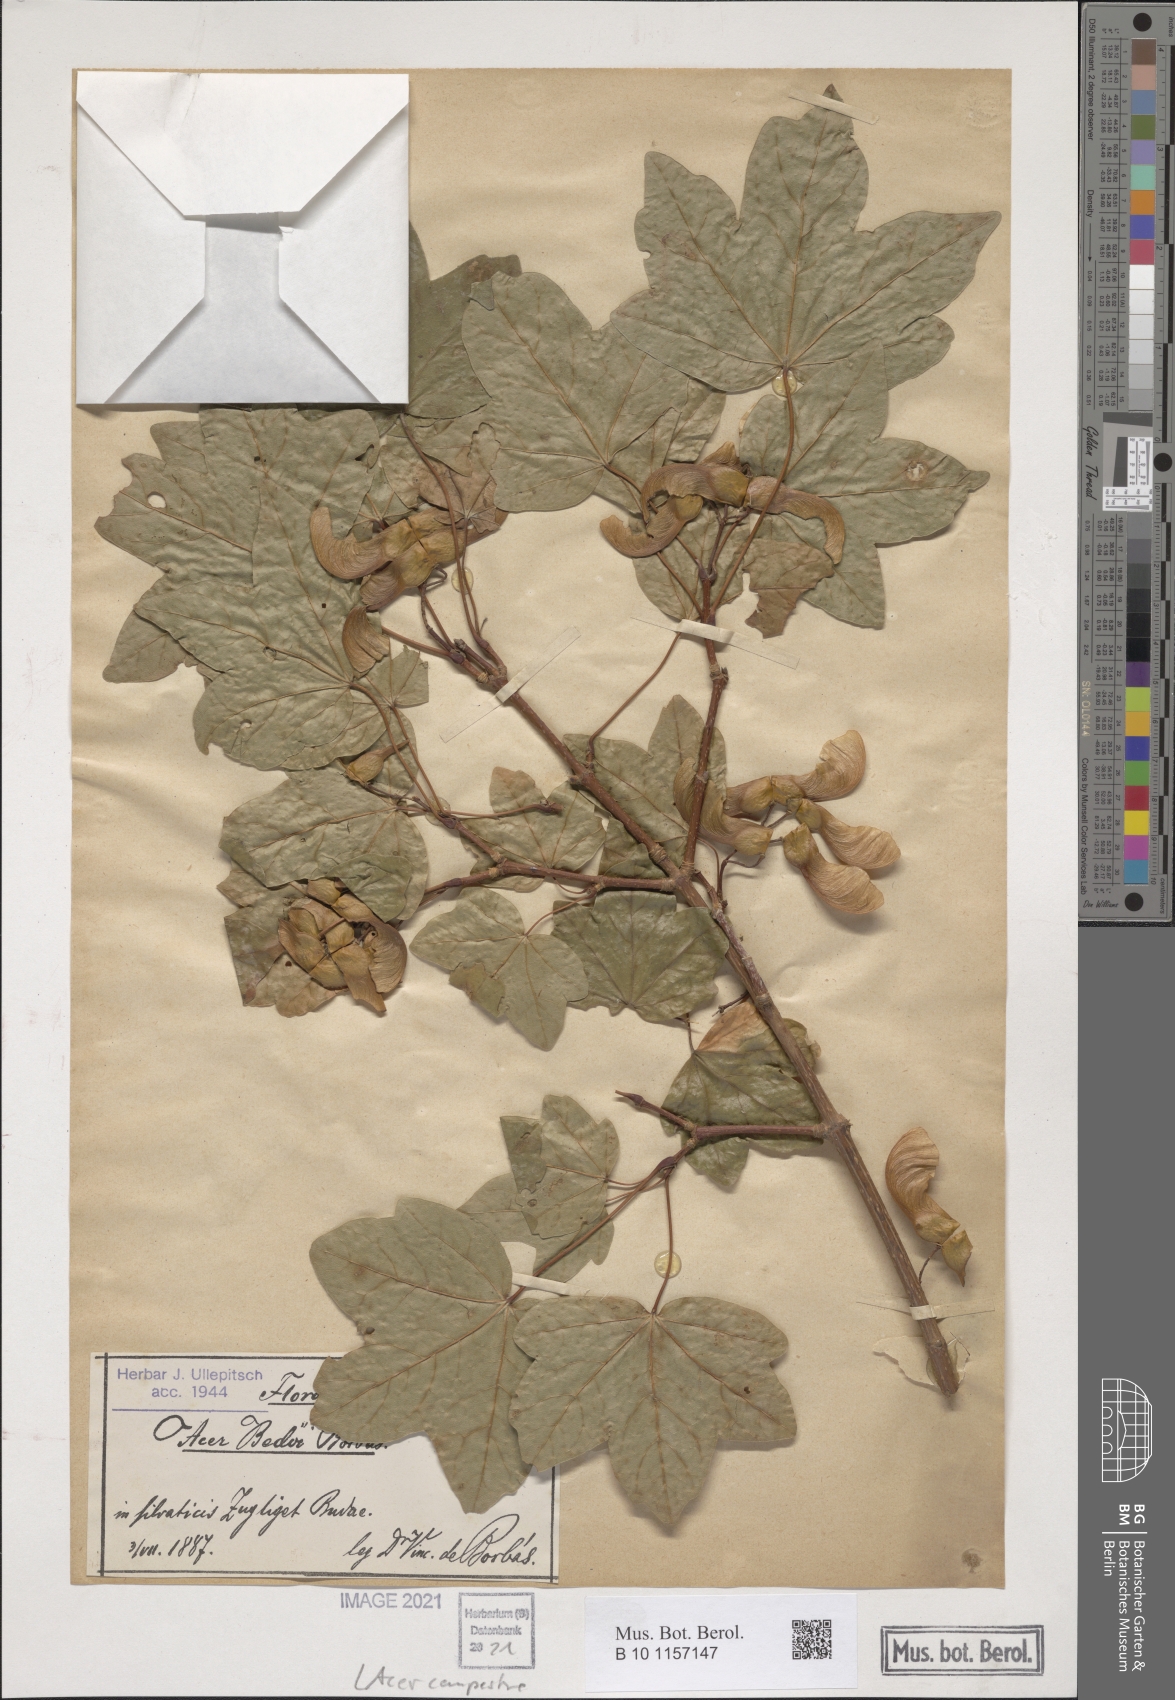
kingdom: Plantae
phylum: Tracheophyta
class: Magnoliopsida
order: Sapindales
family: Sapindaceae
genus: Acer
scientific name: Acer campestre
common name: Field maple
